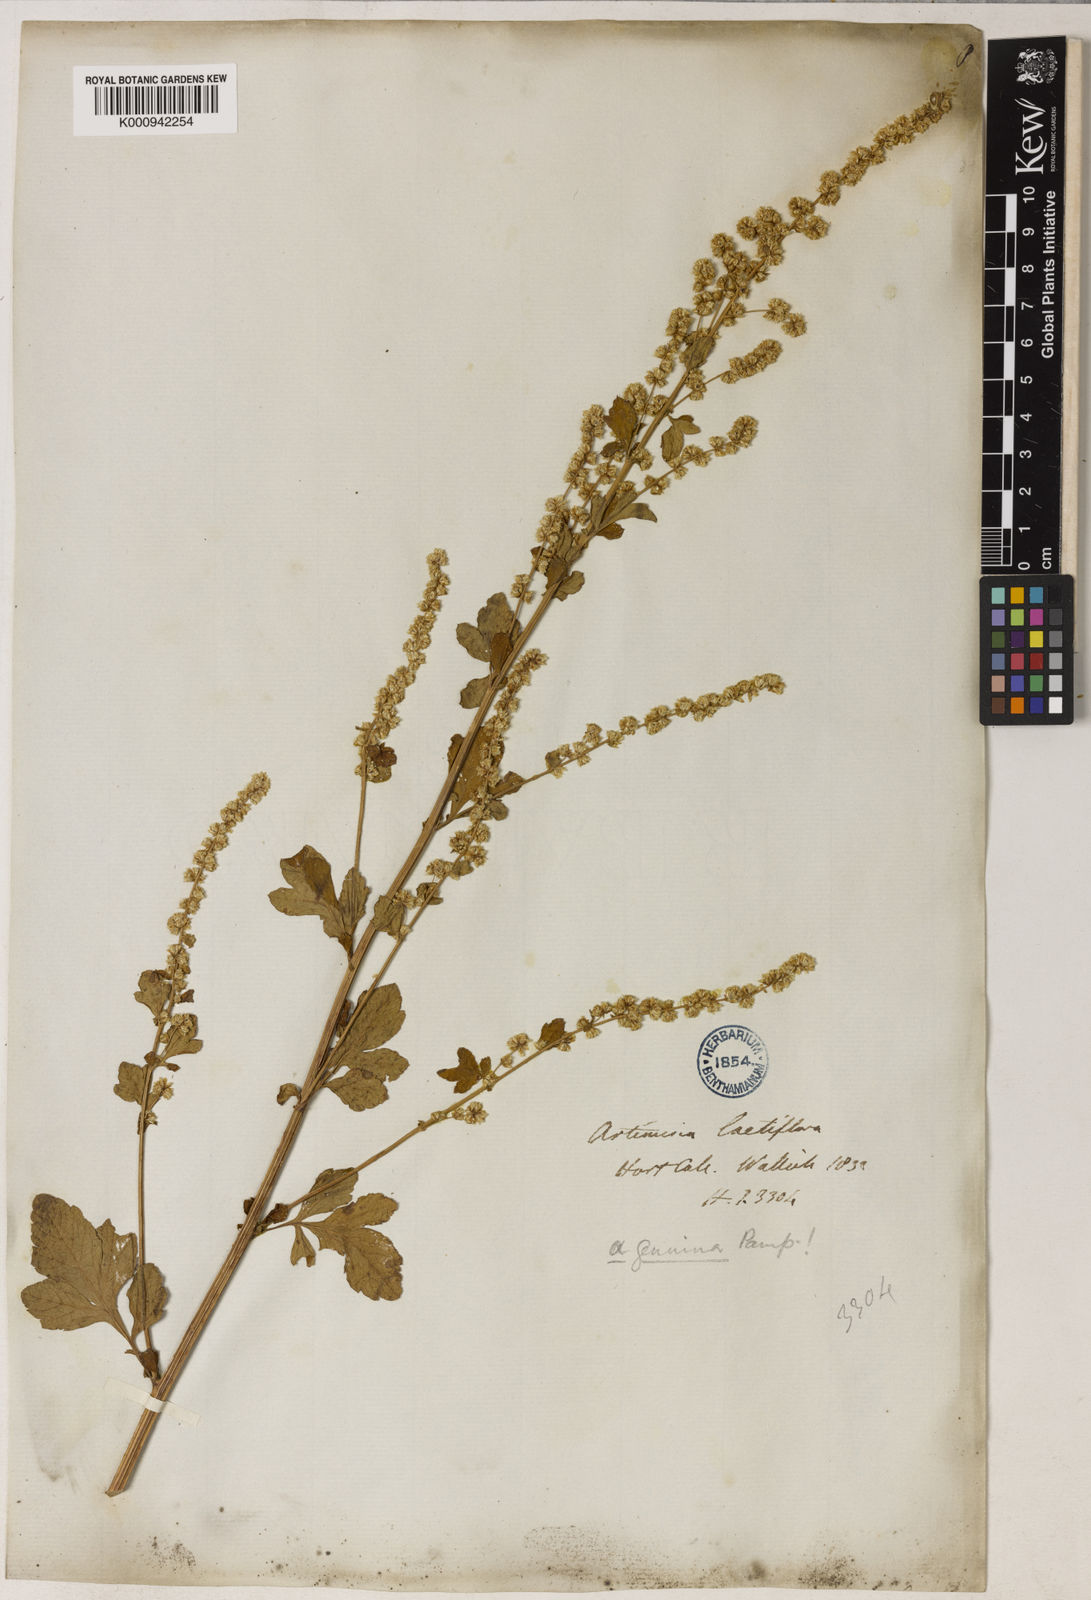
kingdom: Plantae
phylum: Tracheophyta
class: Magnoliopsida
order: Asterales
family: Asteraceae
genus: Artemisia
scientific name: Artemisia lactiflora
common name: White mugwort
